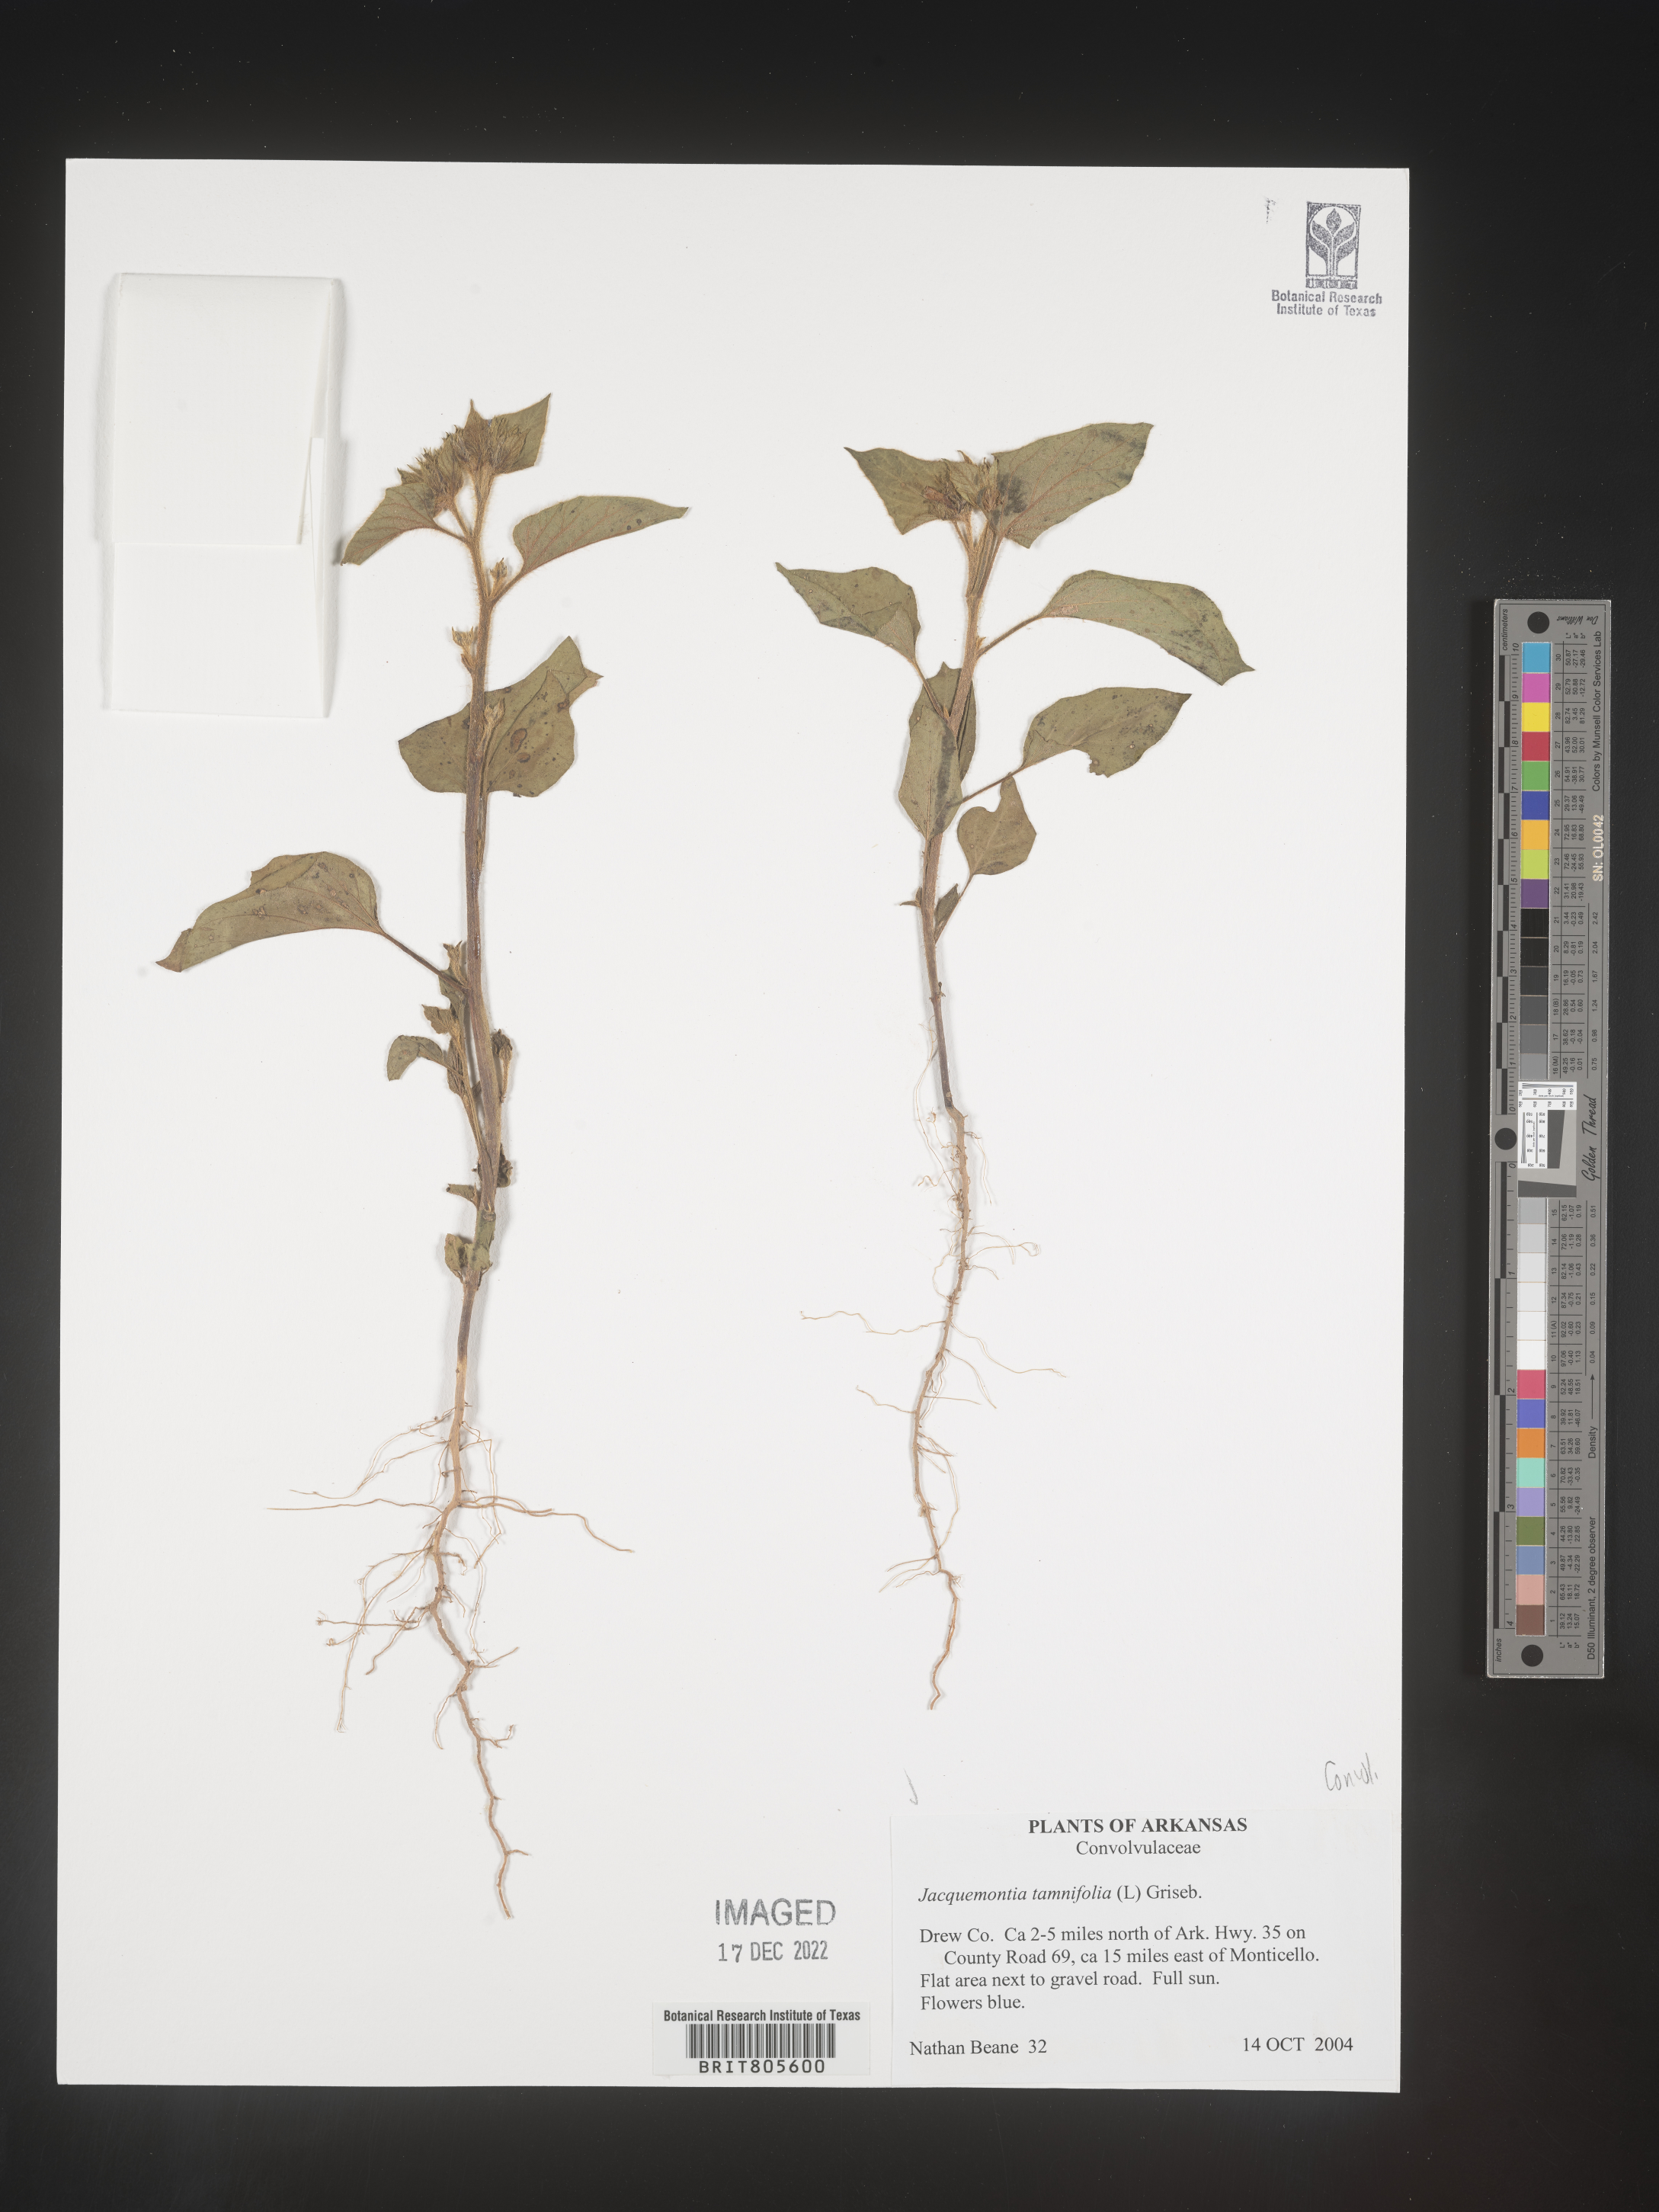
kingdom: Plantae
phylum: Tracheophyta
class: Magnoliopsida
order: Solanales
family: Convolvulaceae
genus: Jacquemontia
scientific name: Jacquemontia tamnifolia
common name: Hairy clustervine
